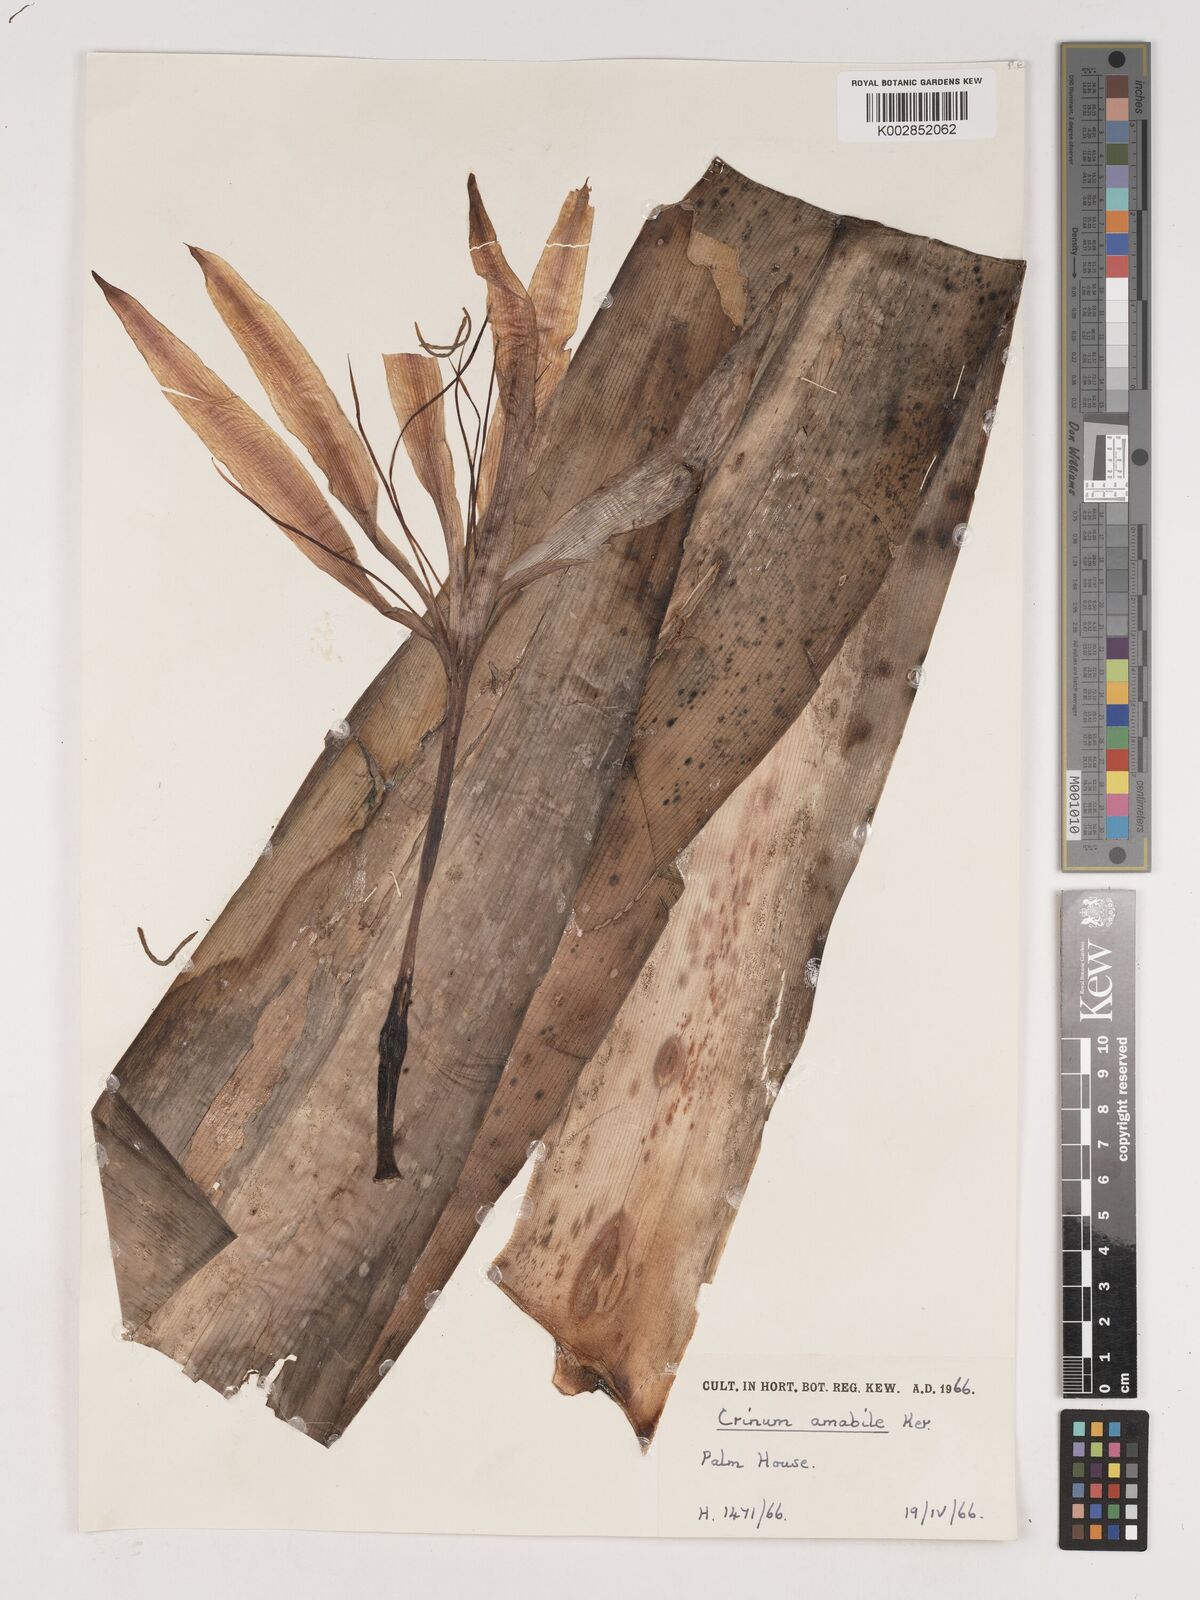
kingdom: Plantae
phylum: Tracheophyta
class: Liliopsida
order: Asparagales
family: Amaryllidaceae
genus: Crinum
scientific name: Crinum amabile
